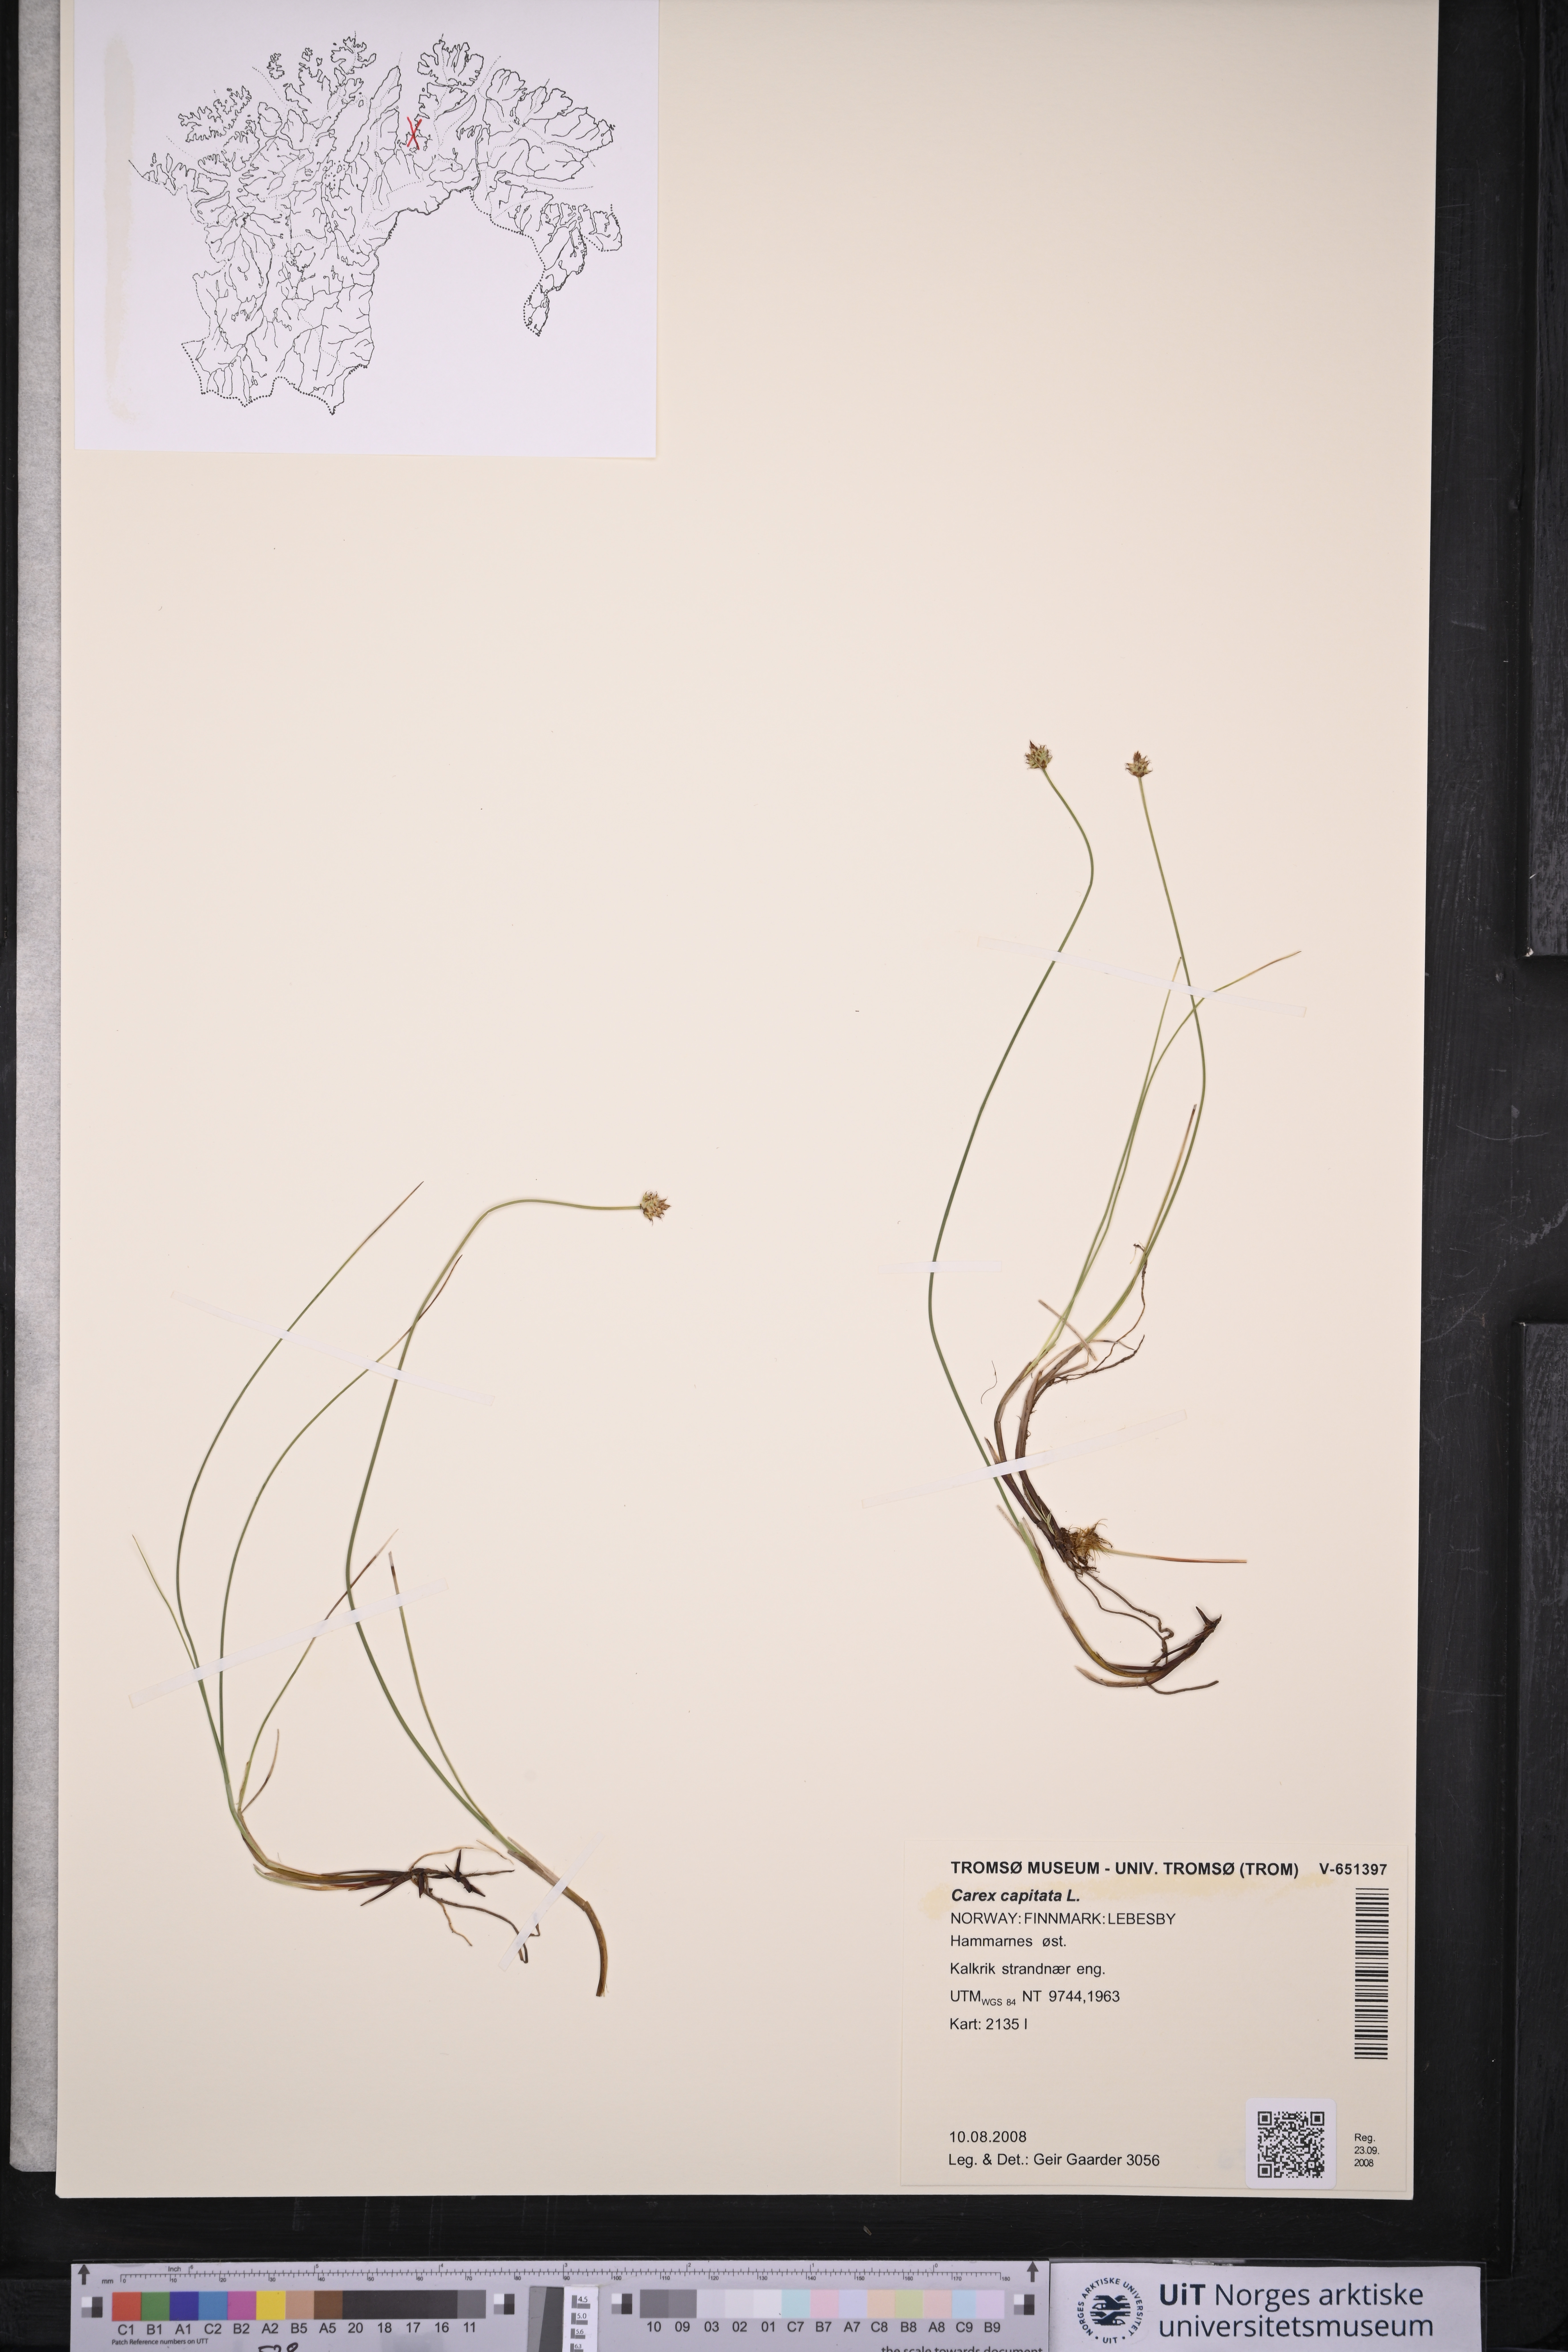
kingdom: Plantae
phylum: Tracheophyta
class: Liliopsida
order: Poales
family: Cyperaceae
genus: Carex
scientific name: Carex capitata
